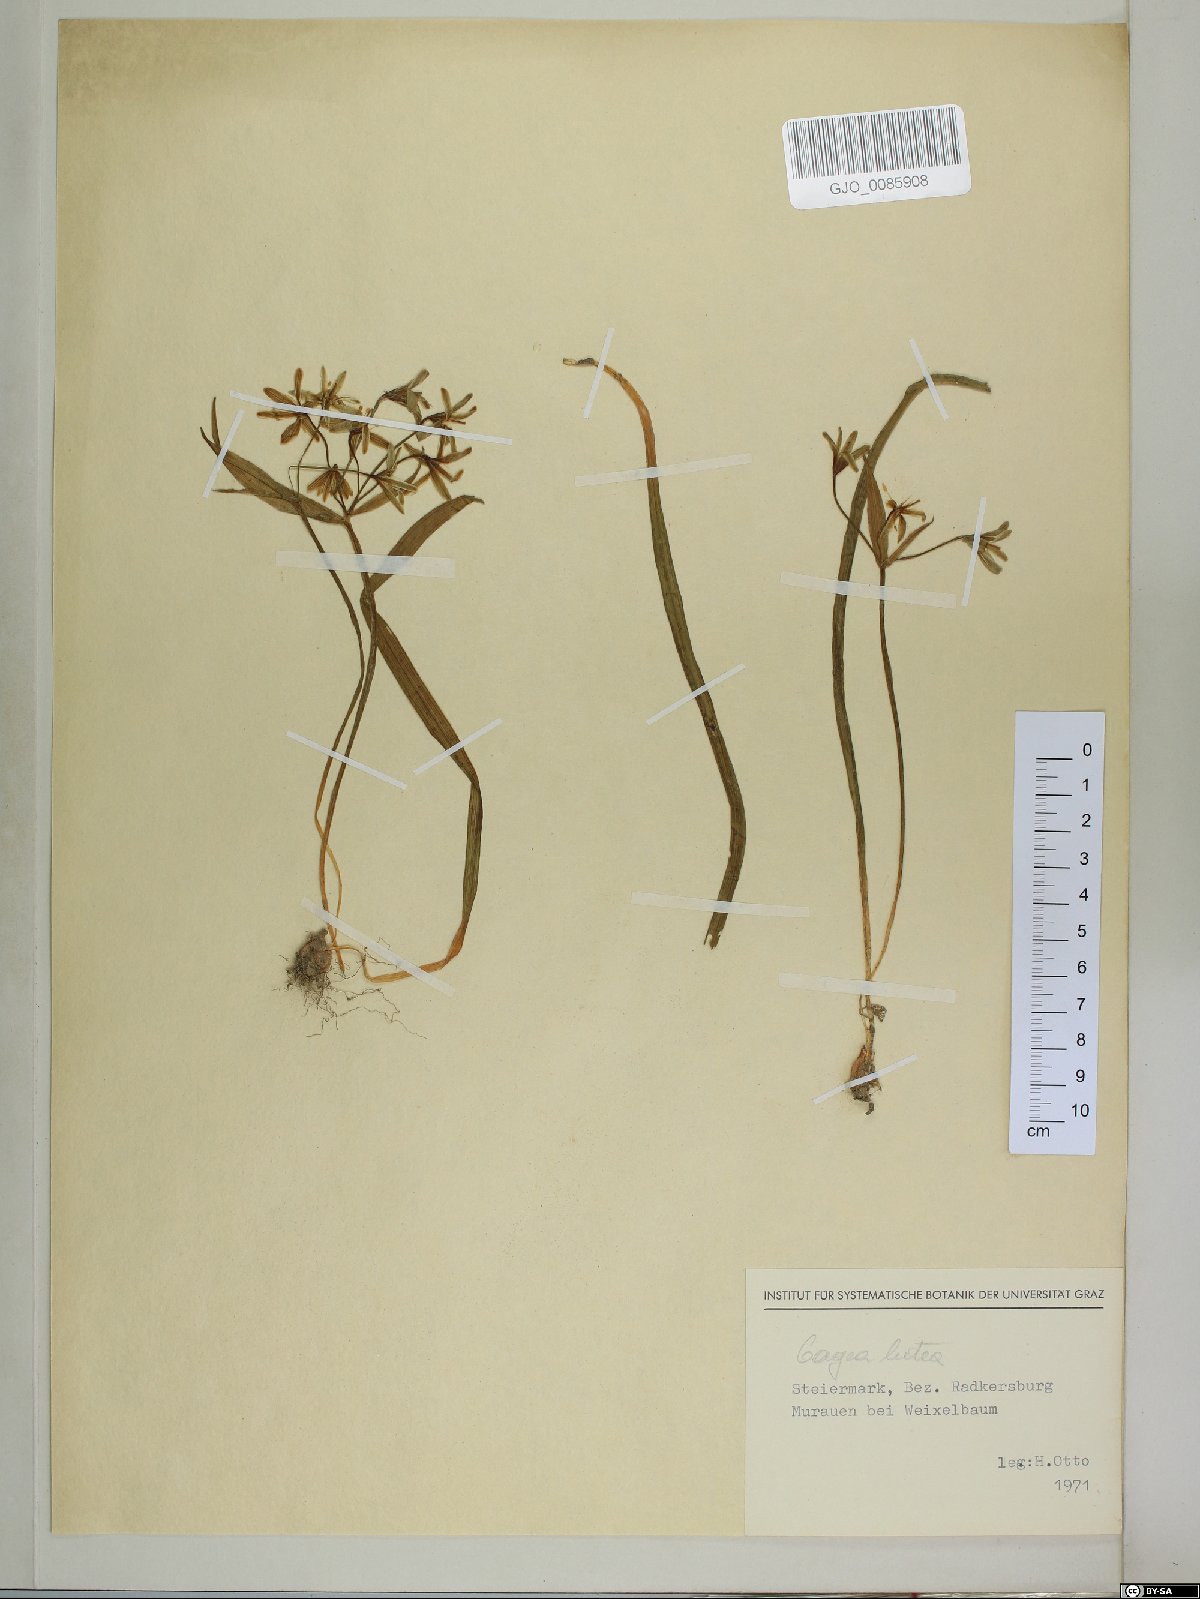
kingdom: Plantae
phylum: Tracheophyta
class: Liliopsida
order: Liliales
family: Liliaceae
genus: Gagea
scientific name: Gagea lutea
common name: Yellow star-of-bethlehem
